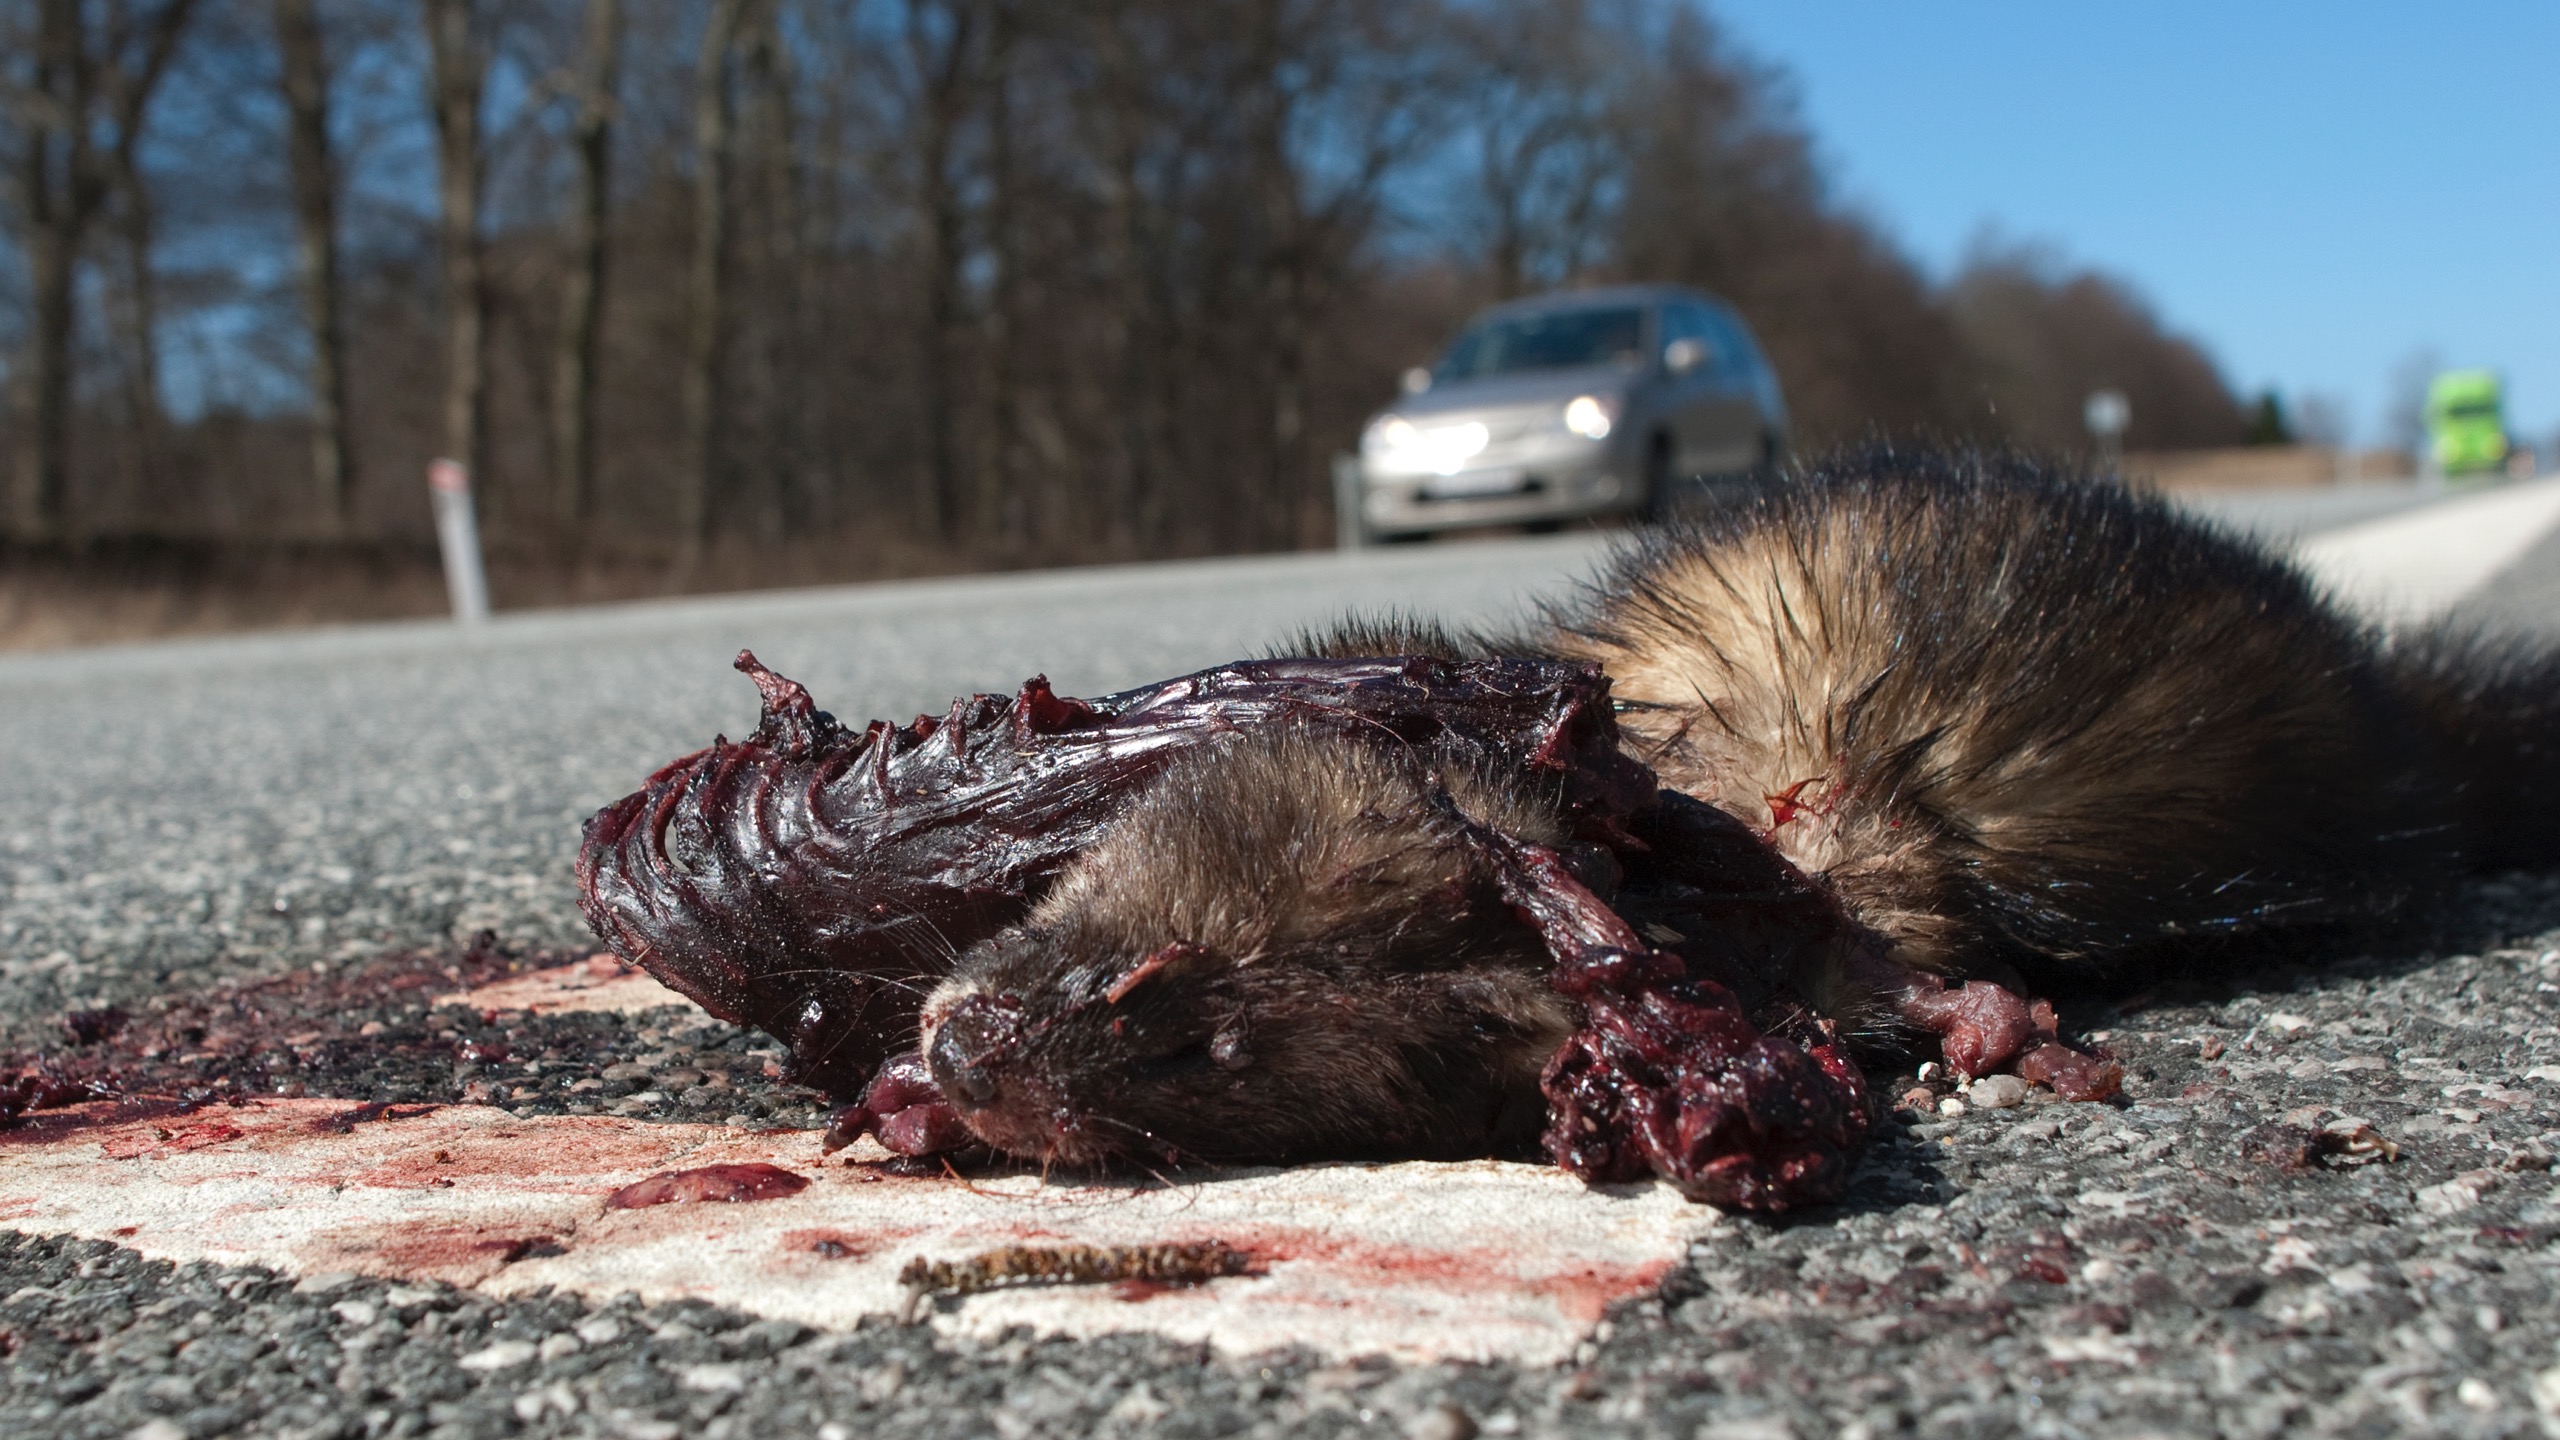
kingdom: Animalia
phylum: Chordata
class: Mammalia
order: Carnivora
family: Mustelidae
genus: Mustela
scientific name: Mustela putorius
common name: Ilder
